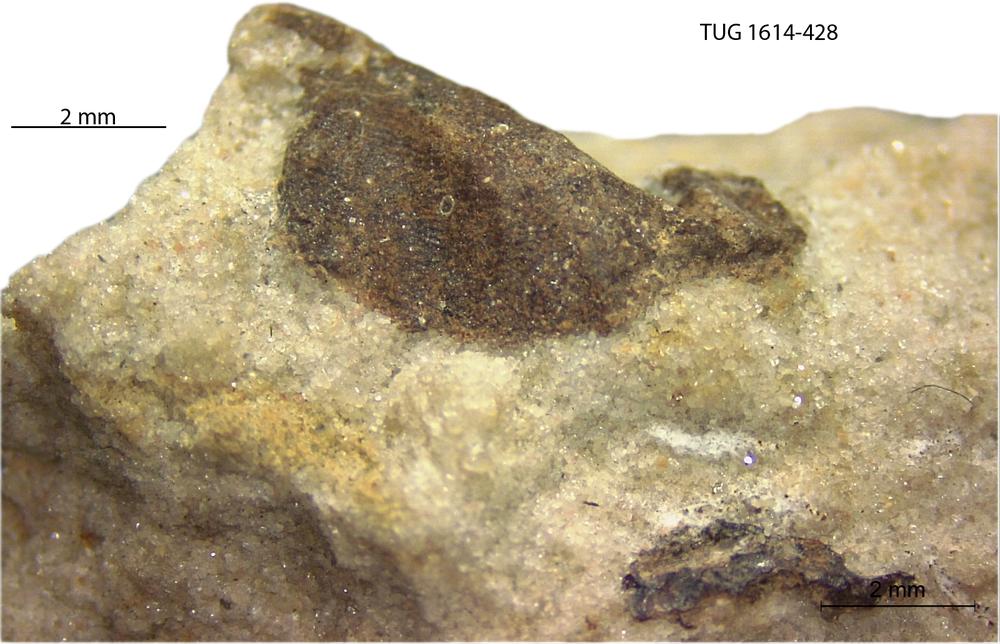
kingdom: Animalia
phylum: Mollusca
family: Scenellidae
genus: Scenella
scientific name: Scenella
